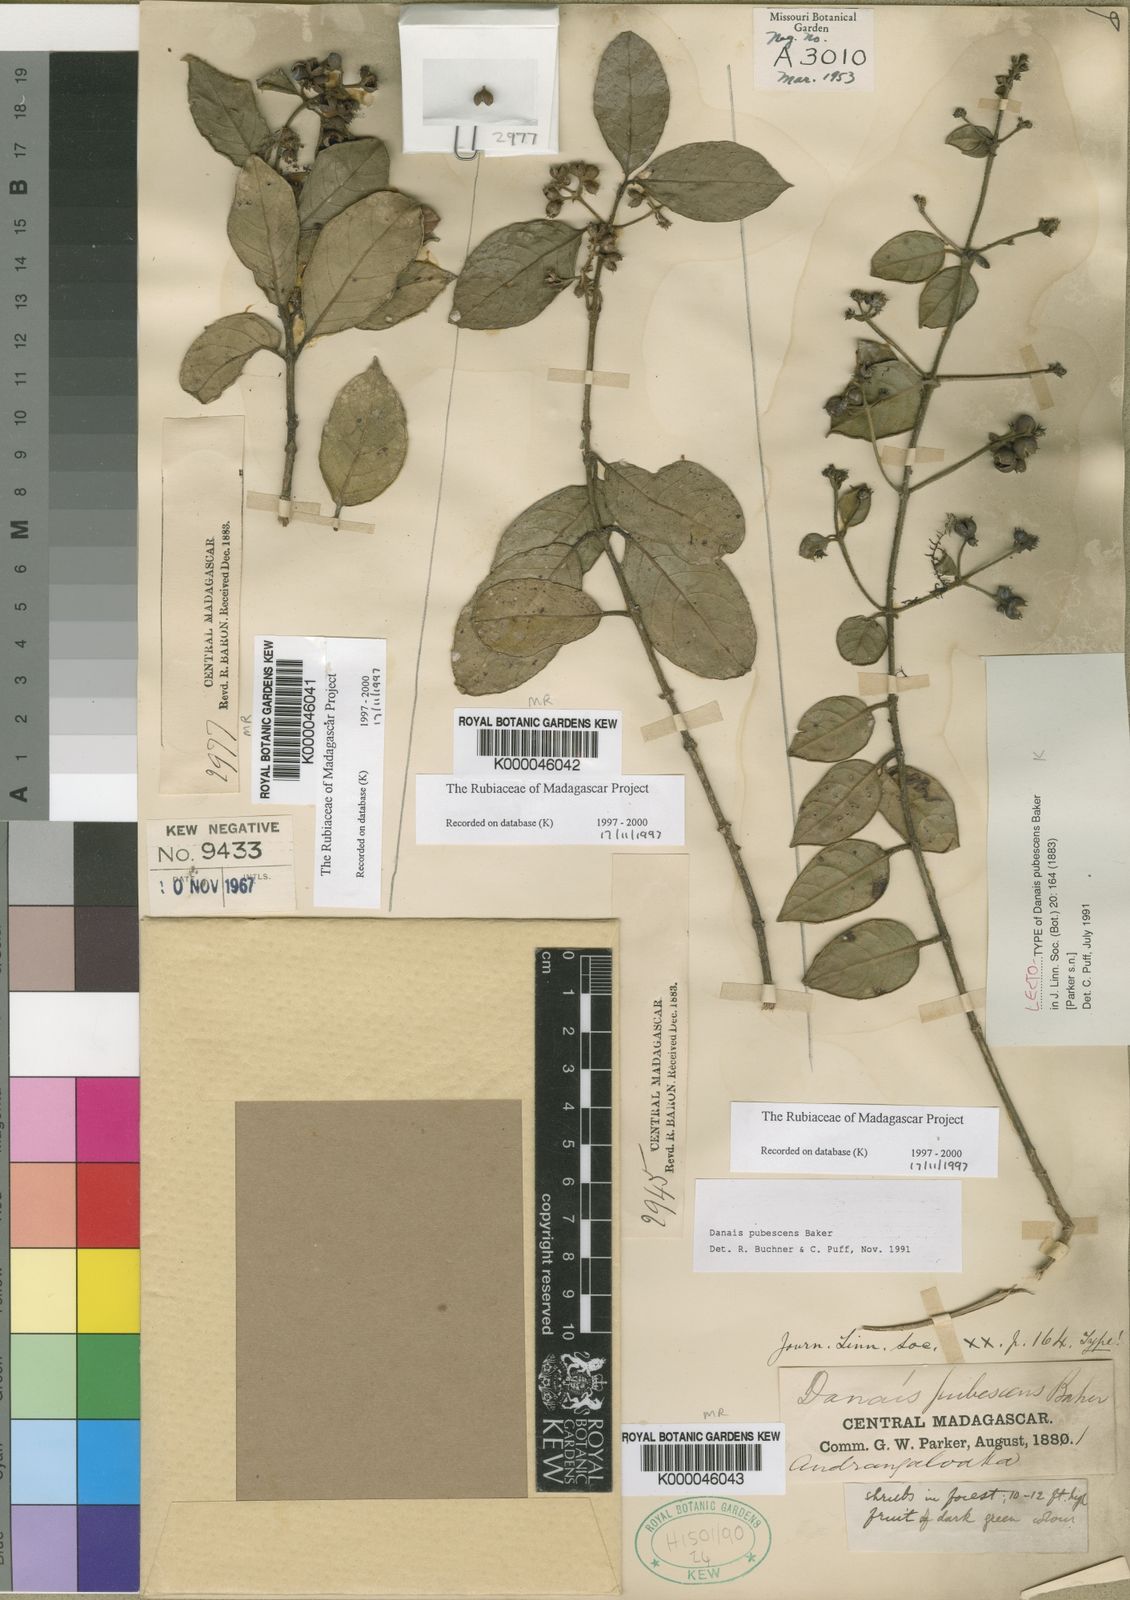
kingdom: Plantae
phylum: Tracheophyta
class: Magnoliopsida
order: Gentianales
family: Rubiaceae
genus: Danais
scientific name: Danais pubescens
